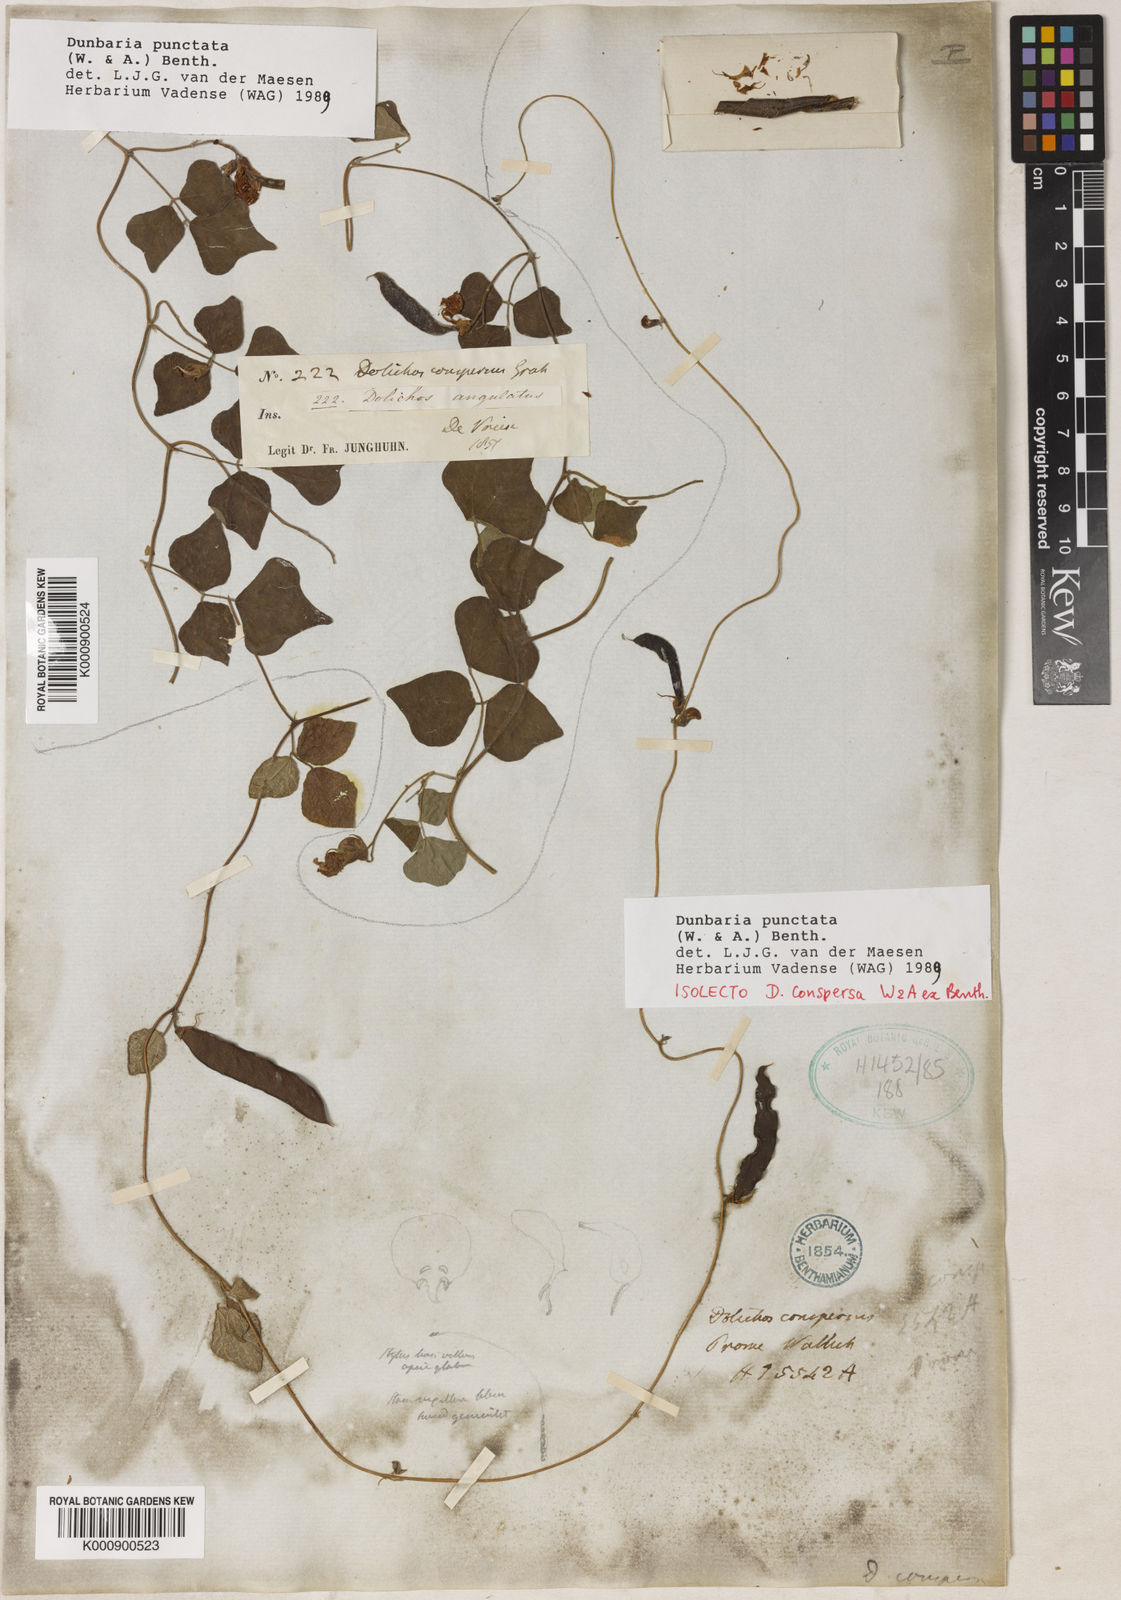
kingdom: Plantae
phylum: Tracheophyta
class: Magnoliopsida
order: Fabales
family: Fabaceae
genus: Dunbaria
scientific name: Dunbaria punctata
